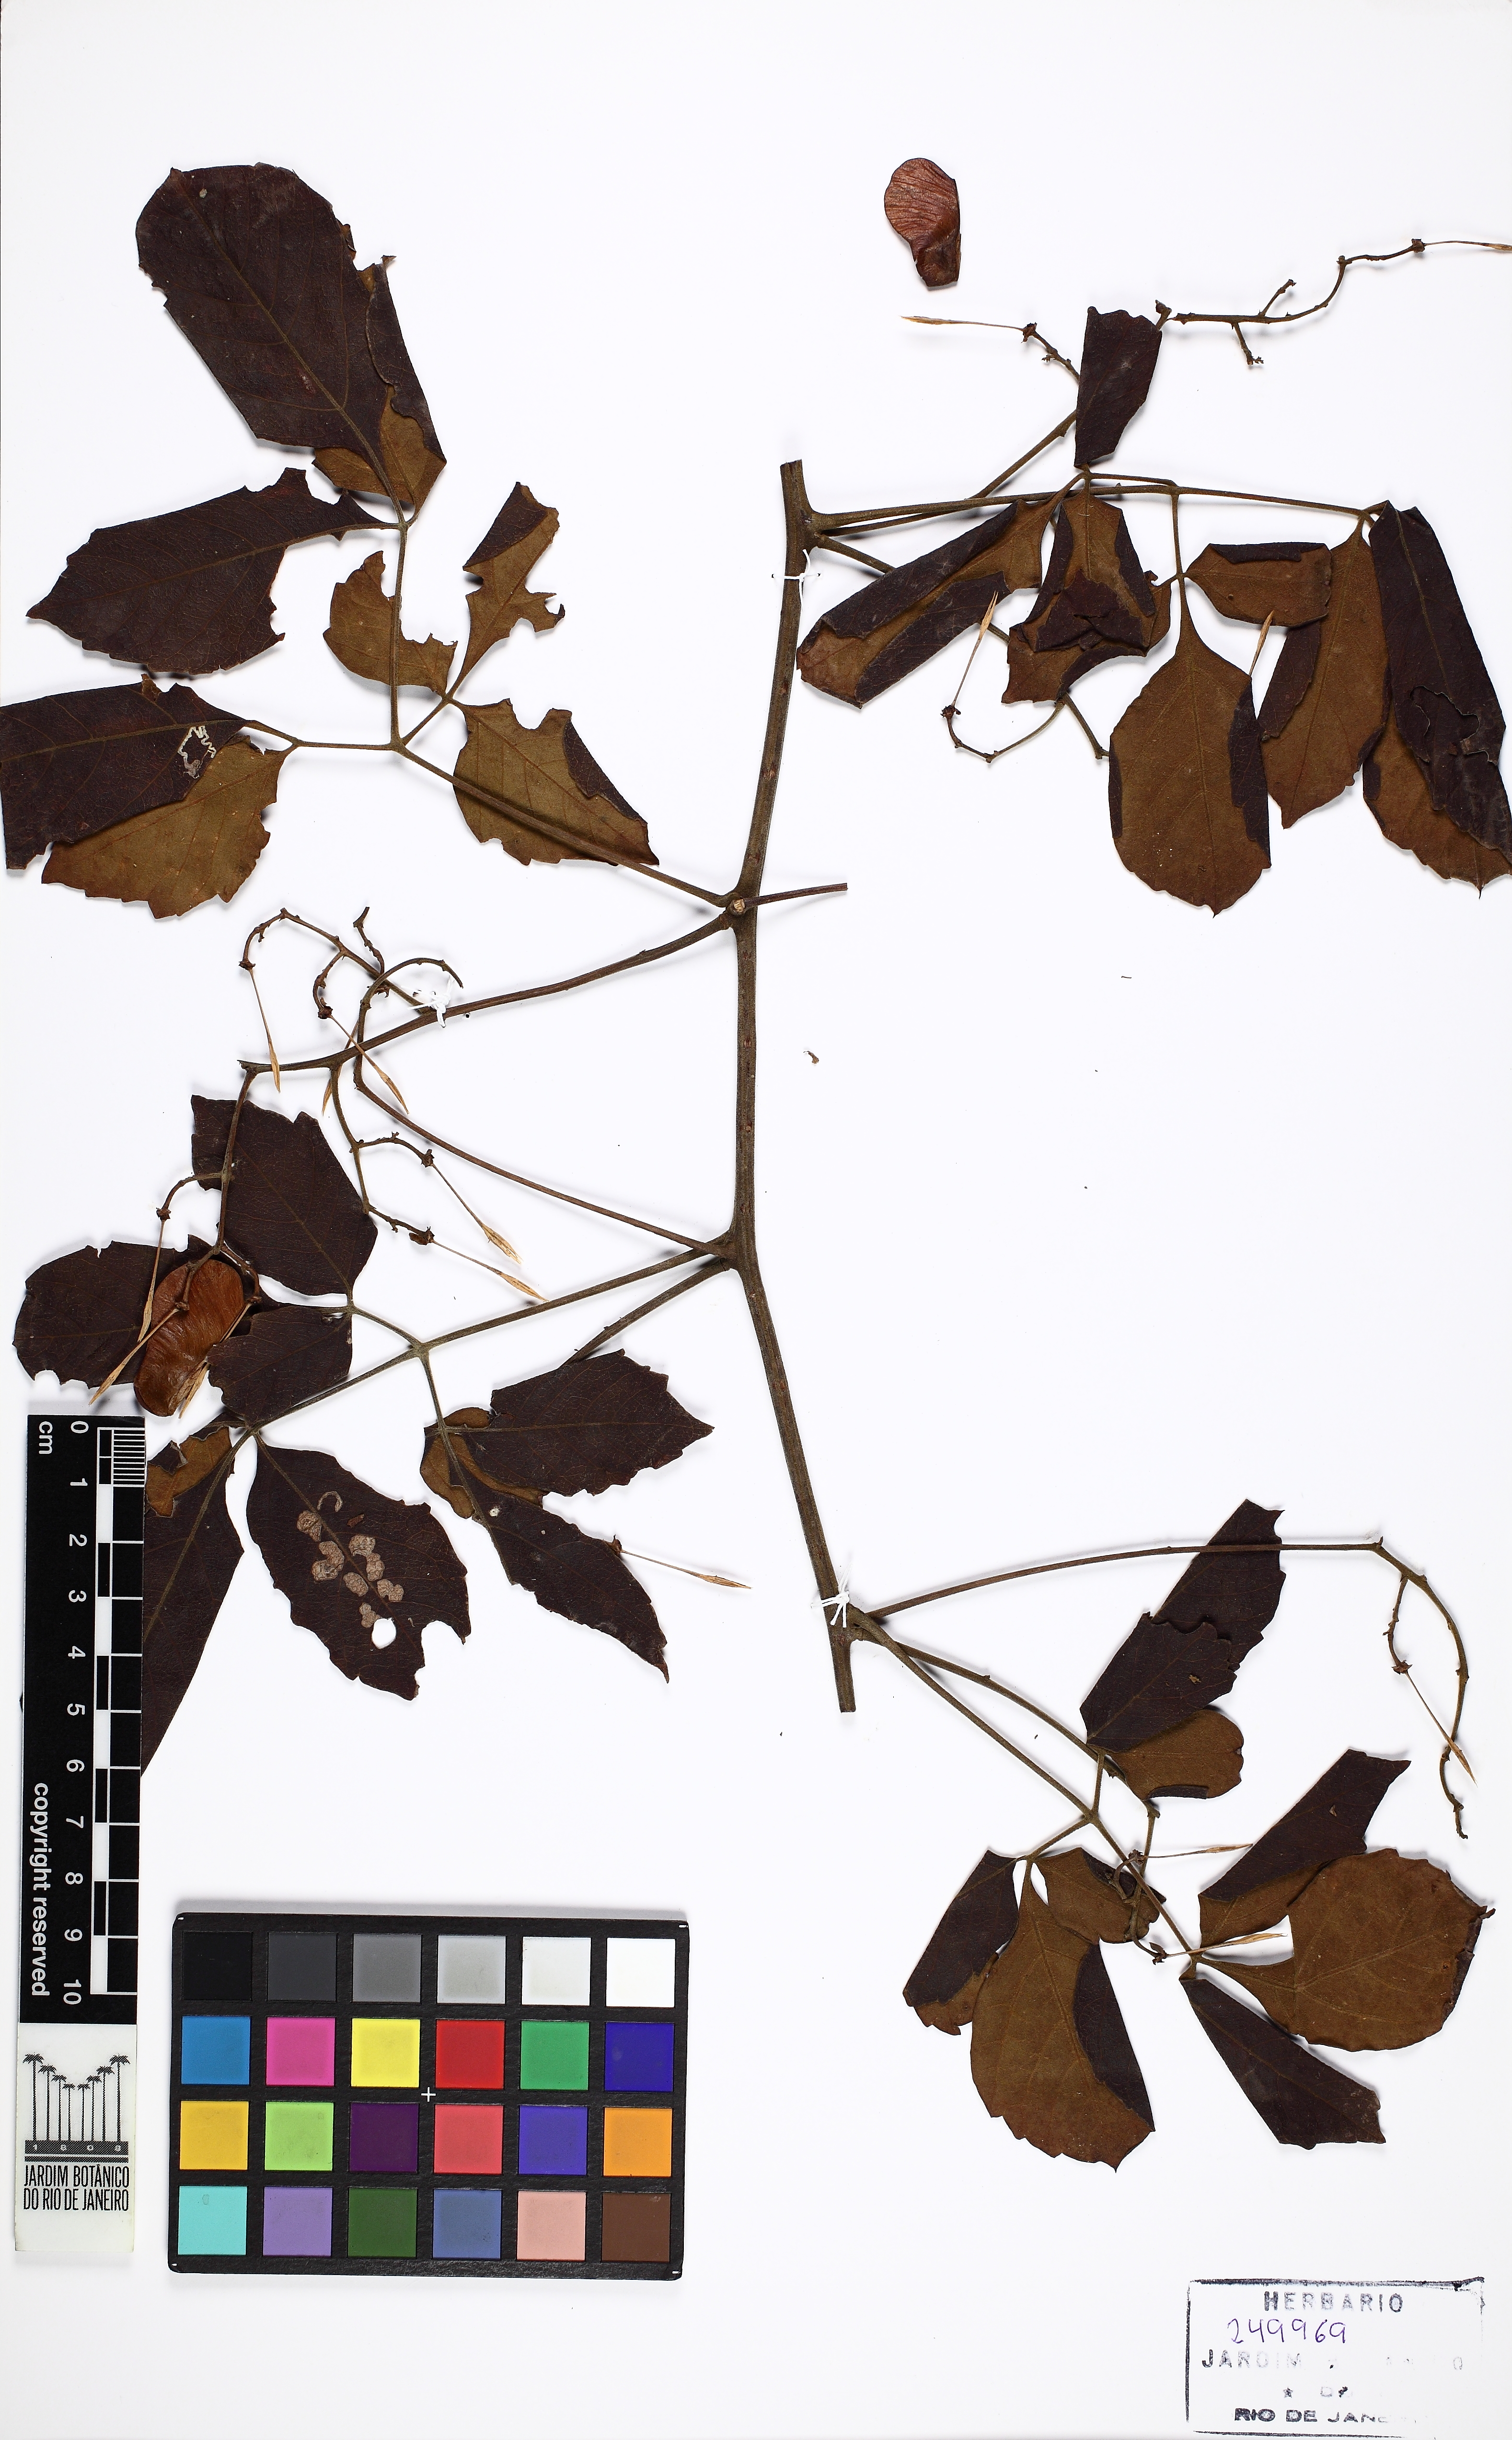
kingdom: Plantae
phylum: Tracheophyta
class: Magnoliopsida
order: Sapindales
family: Sapindaceae
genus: Serjania
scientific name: Serjania eucardia
